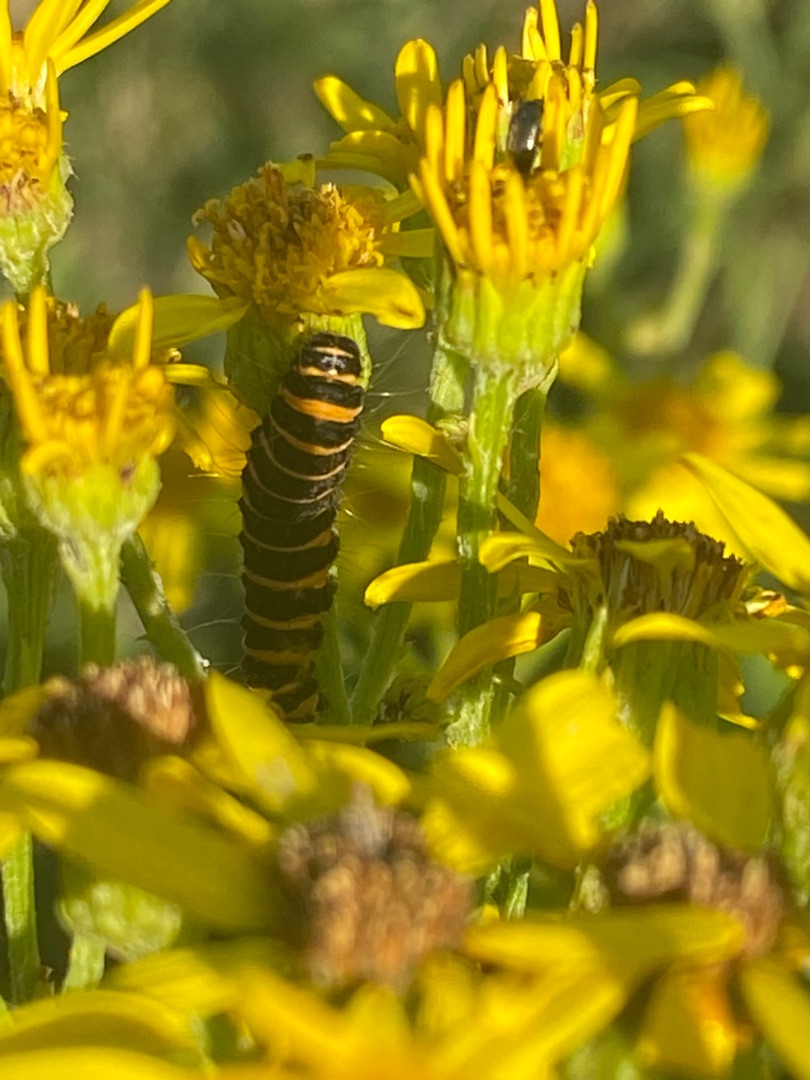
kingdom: Animalia
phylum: Arthropoda
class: Insecta
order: Lepidoptera
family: Erebidae
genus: Tyria
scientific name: Tyria jacobaeae
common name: Blodplet
